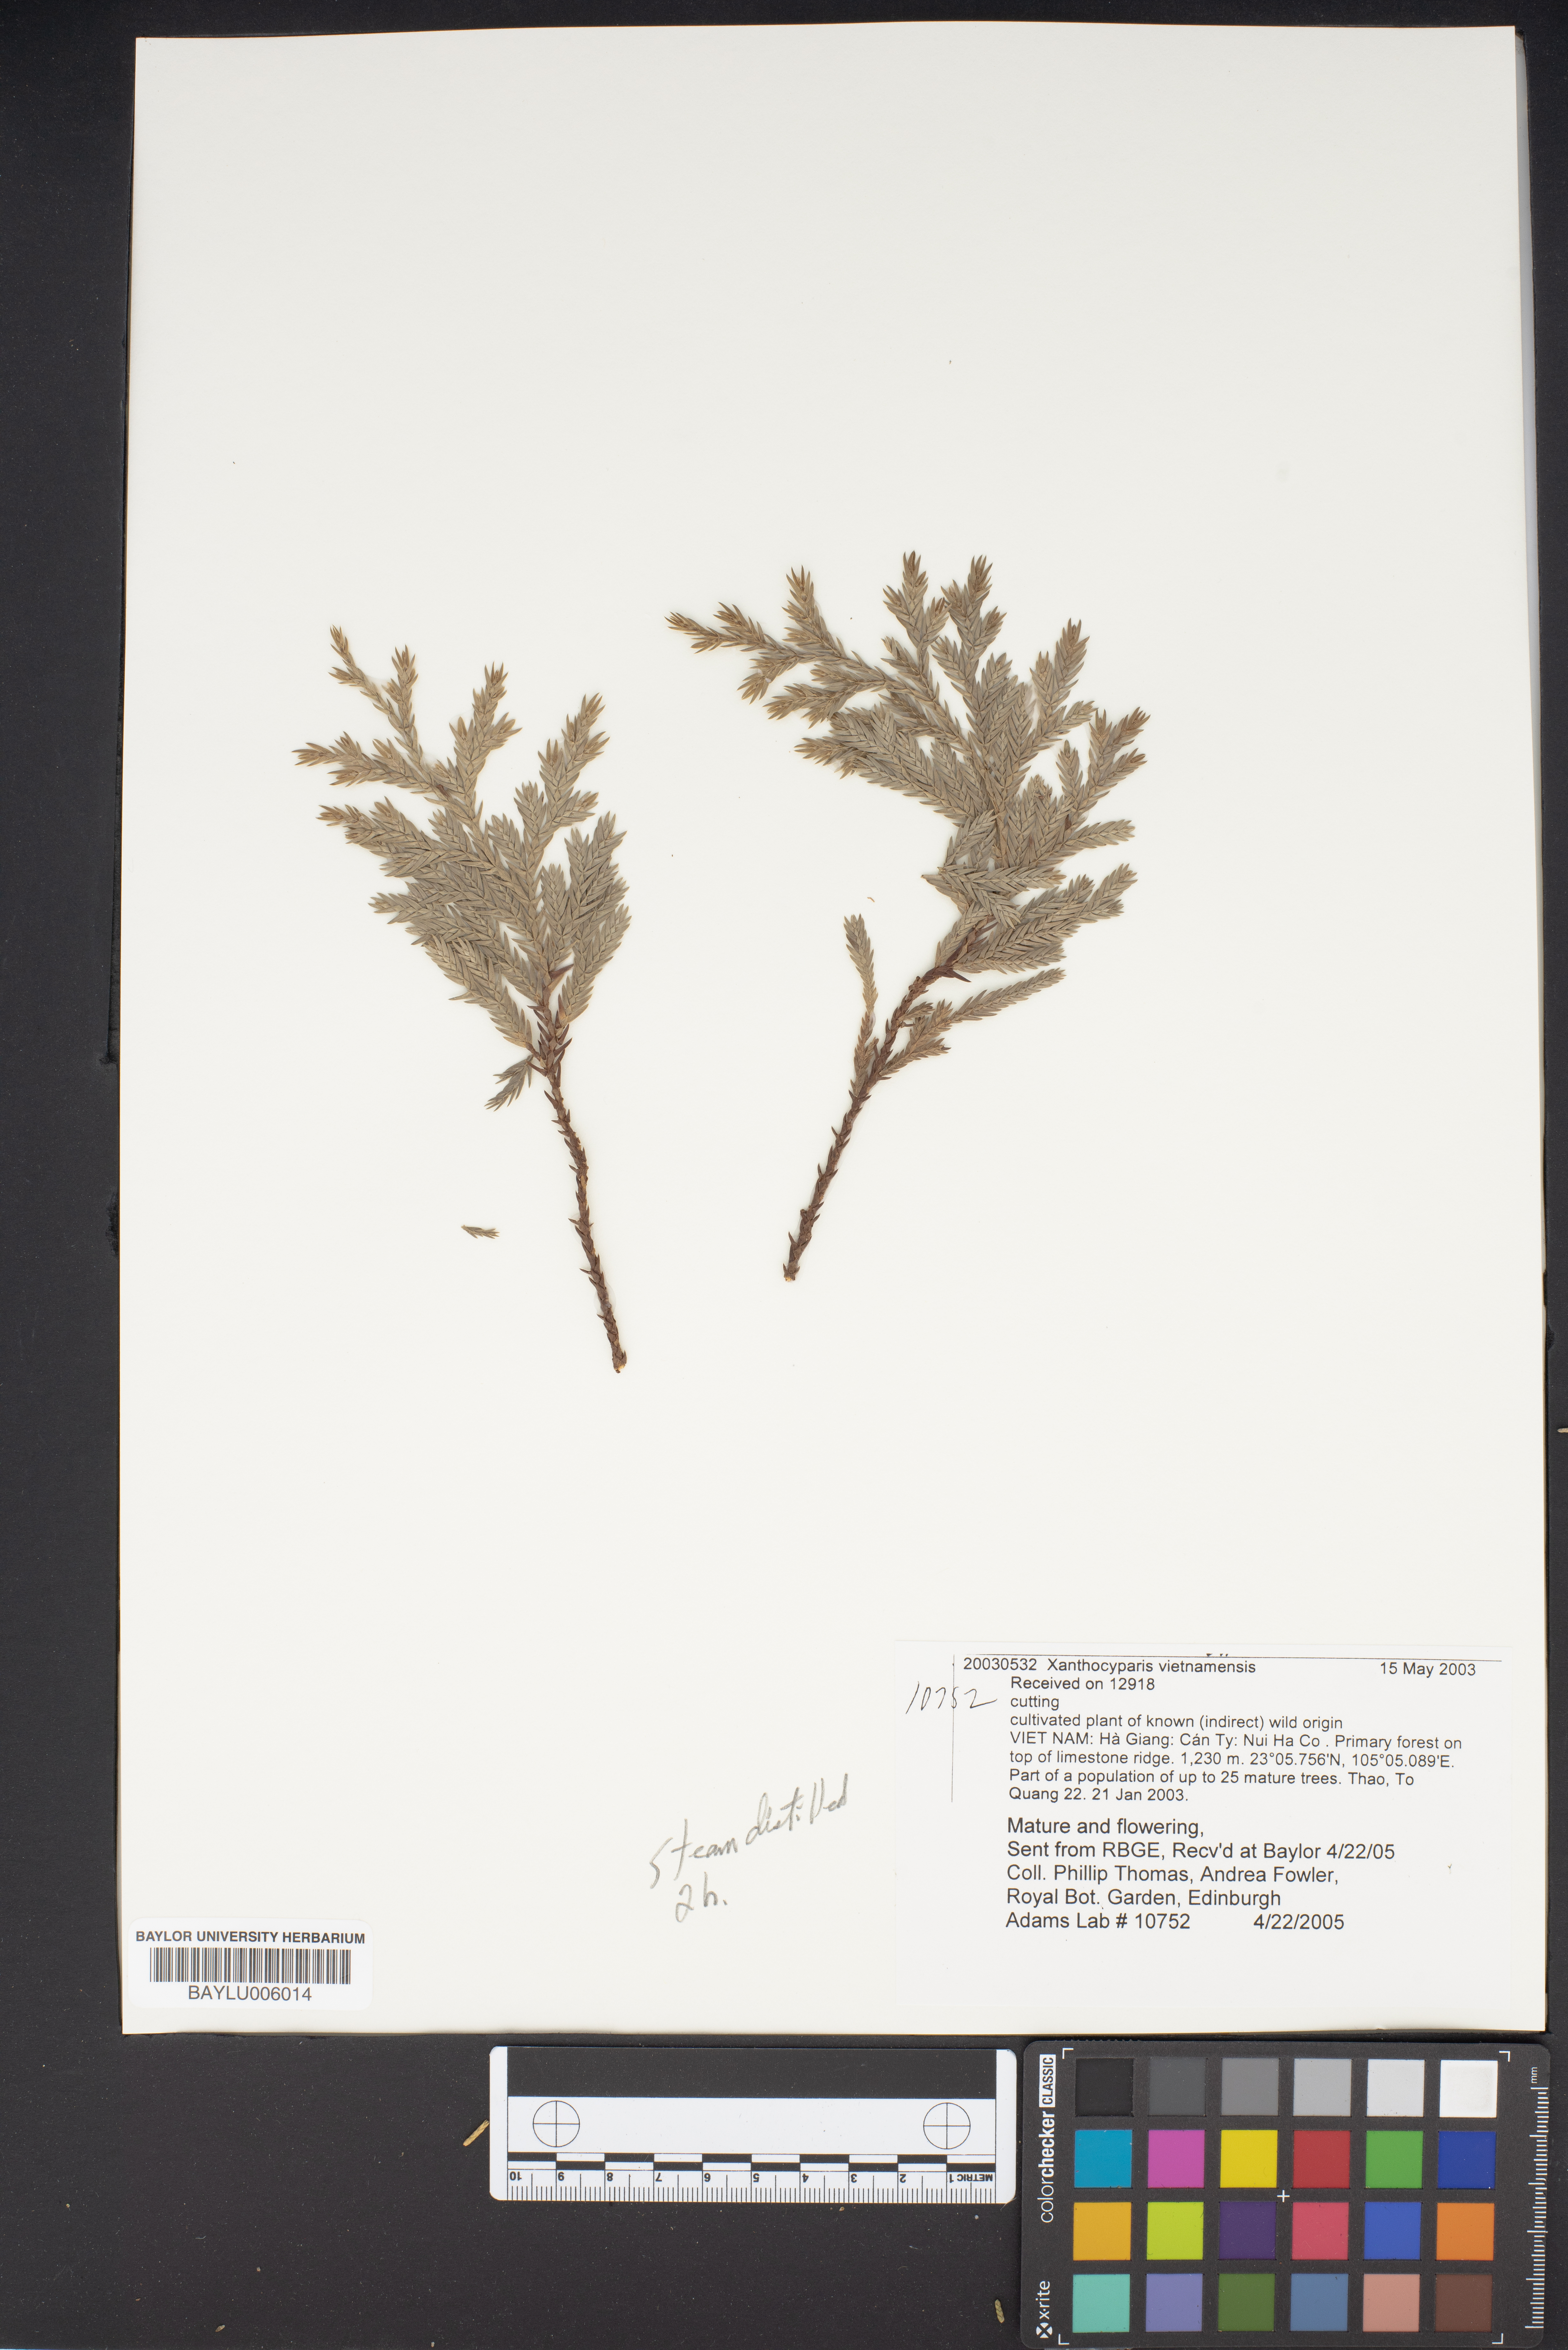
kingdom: Plantae
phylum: Tracheophyta
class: Pinopsida
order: Pinales
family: Cupressaceae
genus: Xanthocyparis
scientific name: Xanthocyparis vietnamensis
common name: Golden vietnamese cypress
